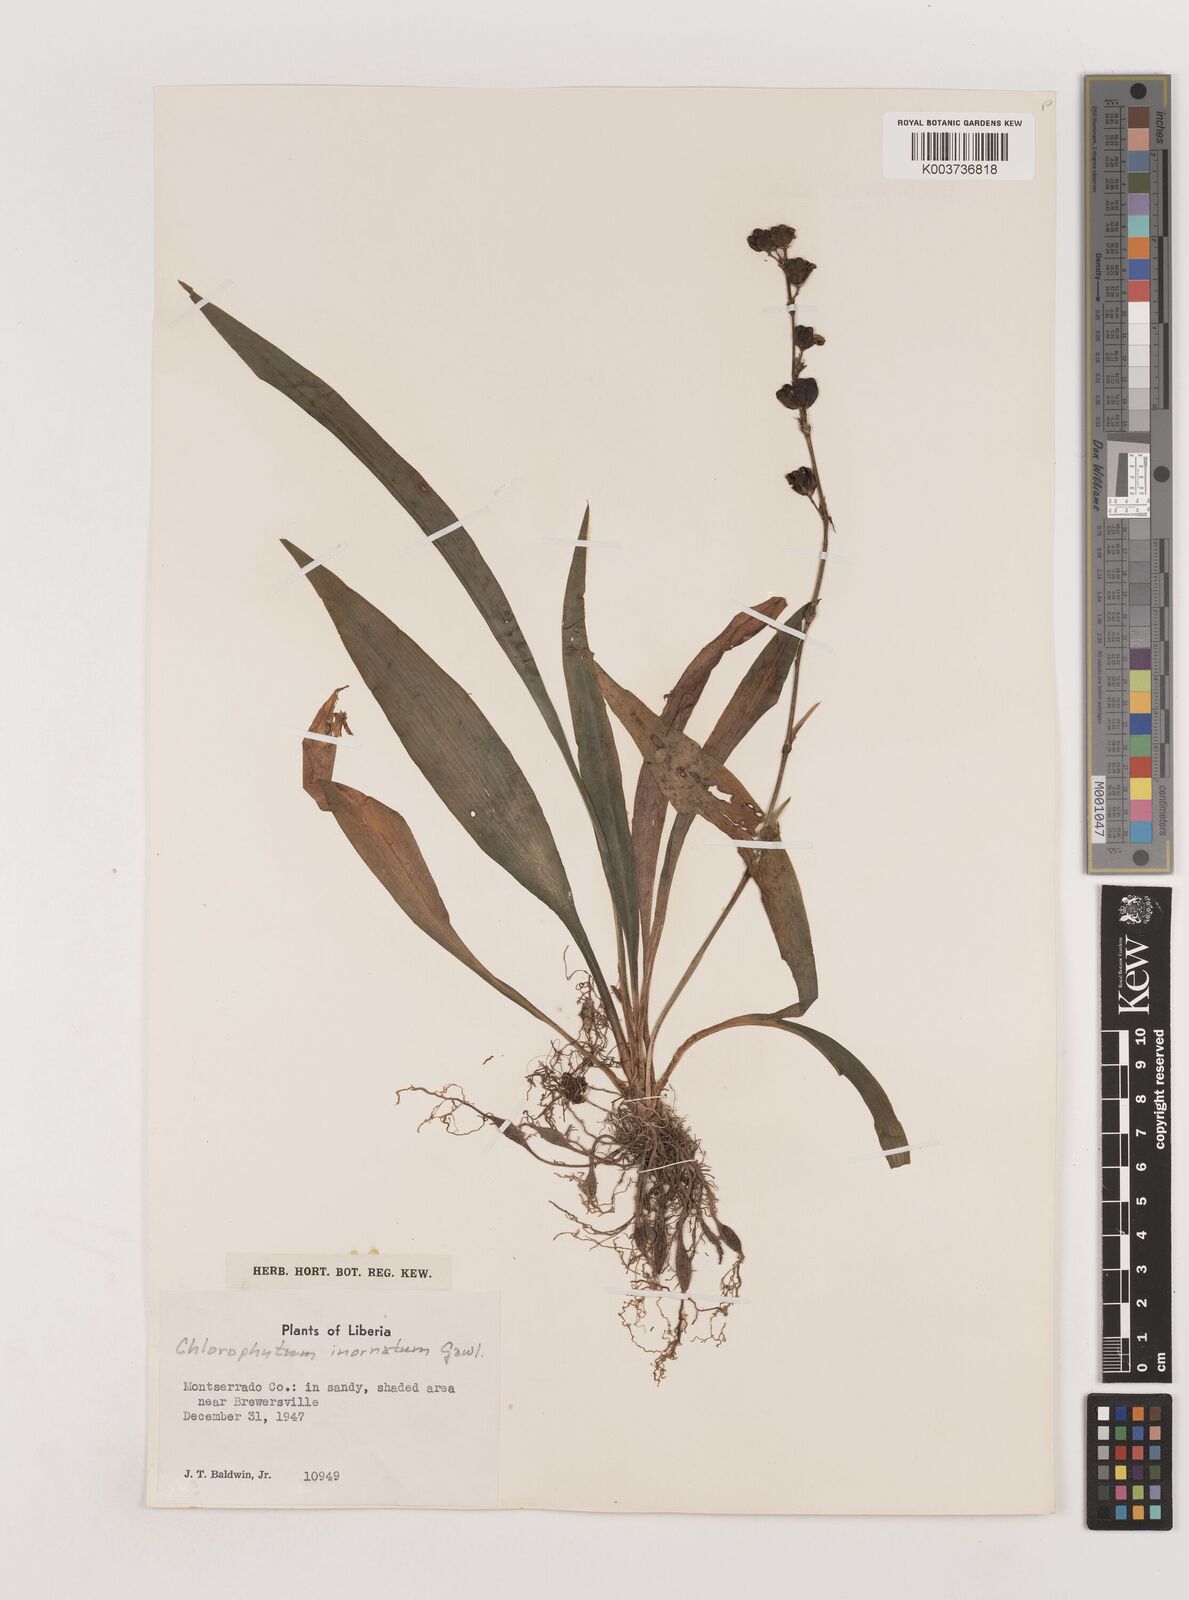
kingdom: Plantae
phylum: Tracheophyta
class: Liliopsida
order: Asparagales
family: Asparagaceae
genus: Chlorophytum
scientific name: Chlorophytum inornatum
